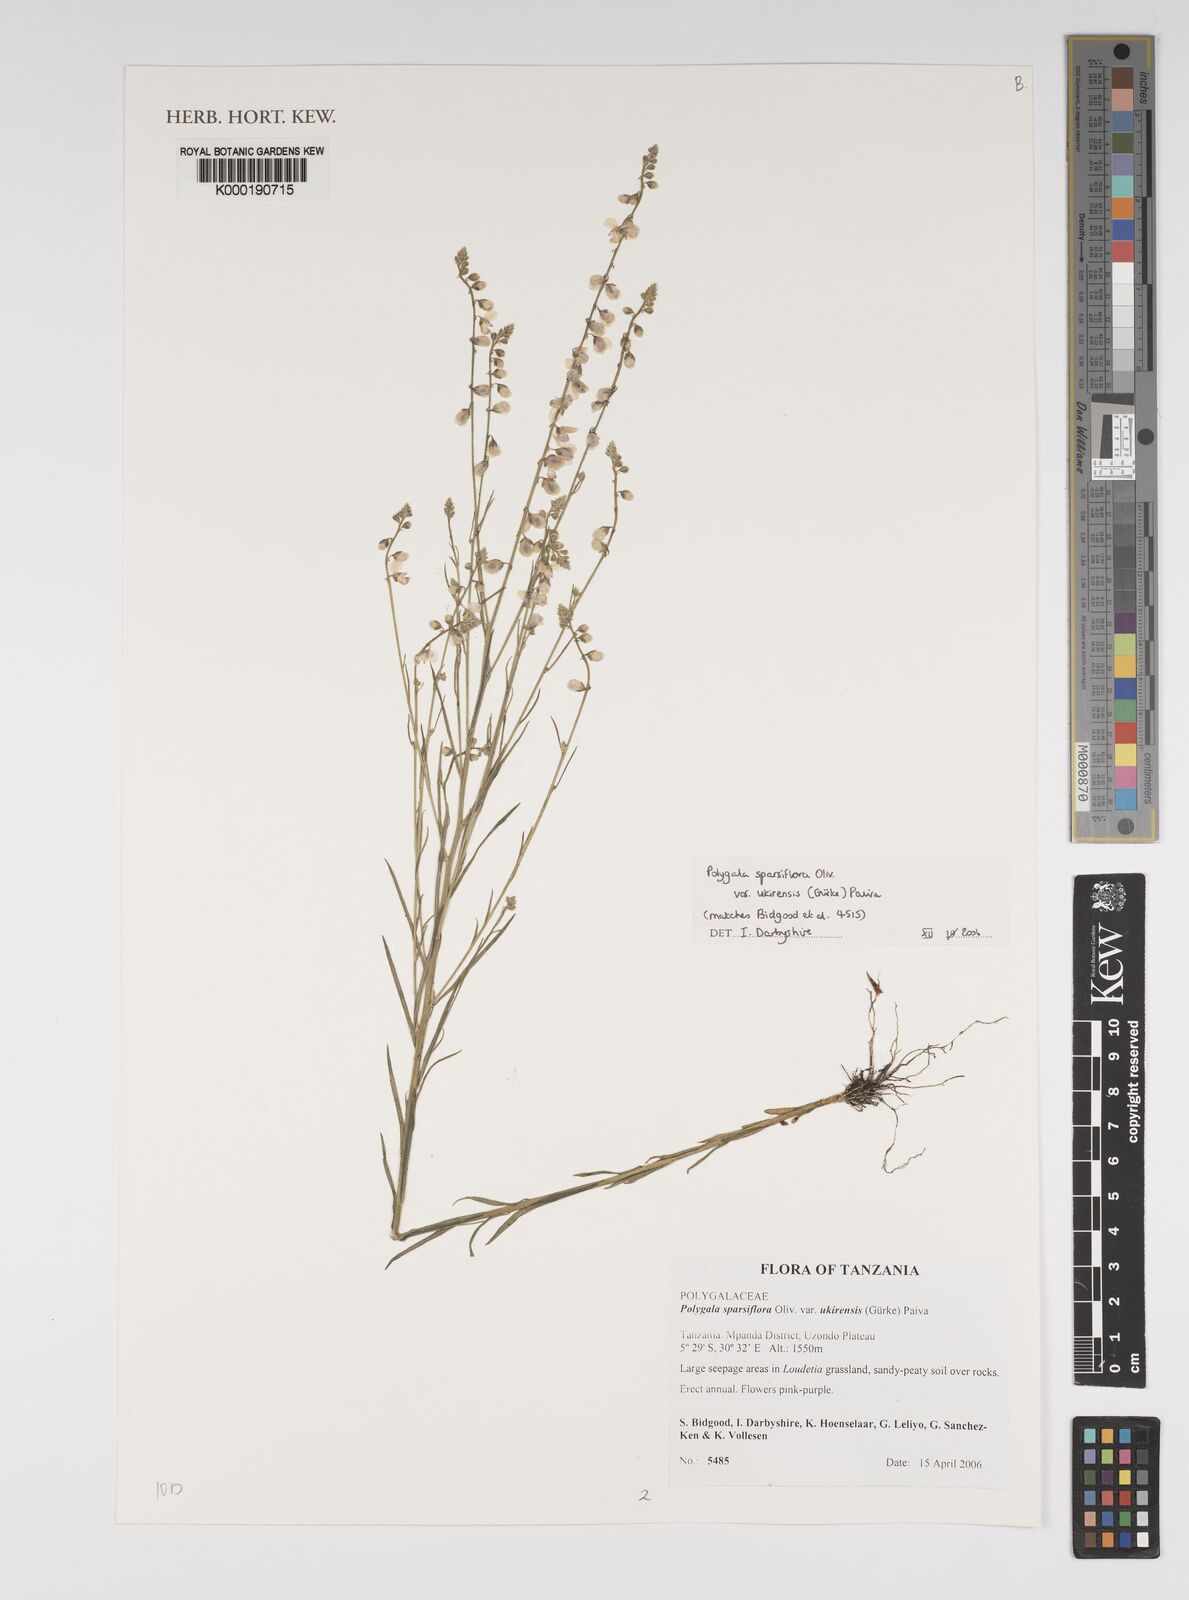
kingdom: Plantae
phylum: Tracheophyta
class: Magnoliopsida
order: Fabales
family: Polygalaceae
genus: Polygala
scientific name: Polygala sparsiflora
